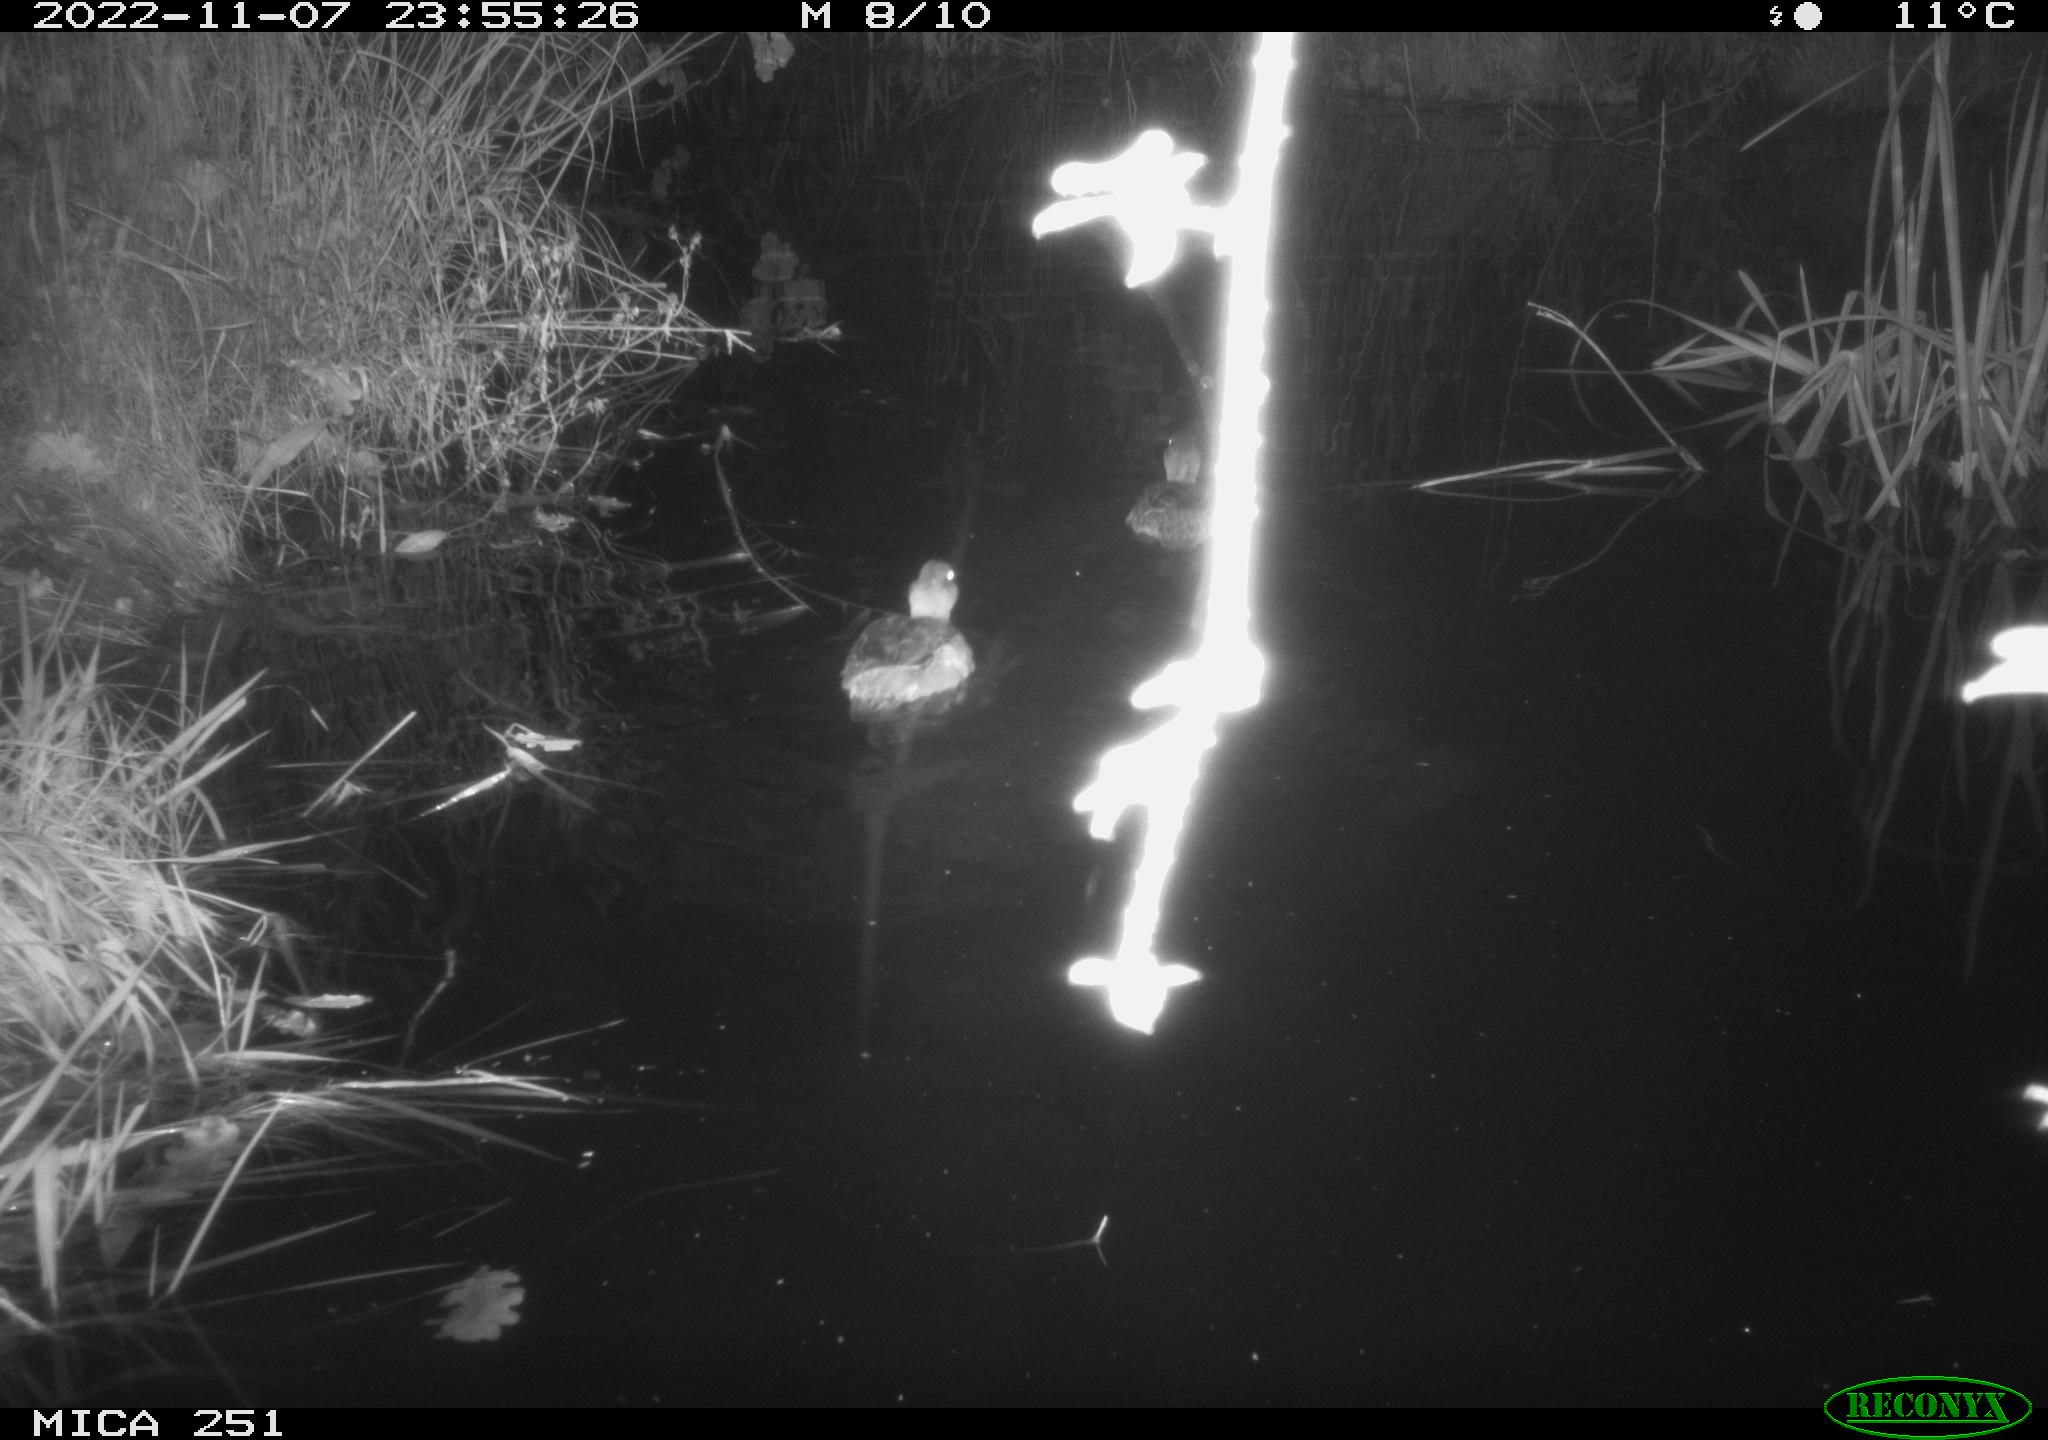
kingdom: Animalia
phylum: Chordata
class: Aves
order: Anseriformes
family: Anatidae
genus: Anas
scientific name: Anas
